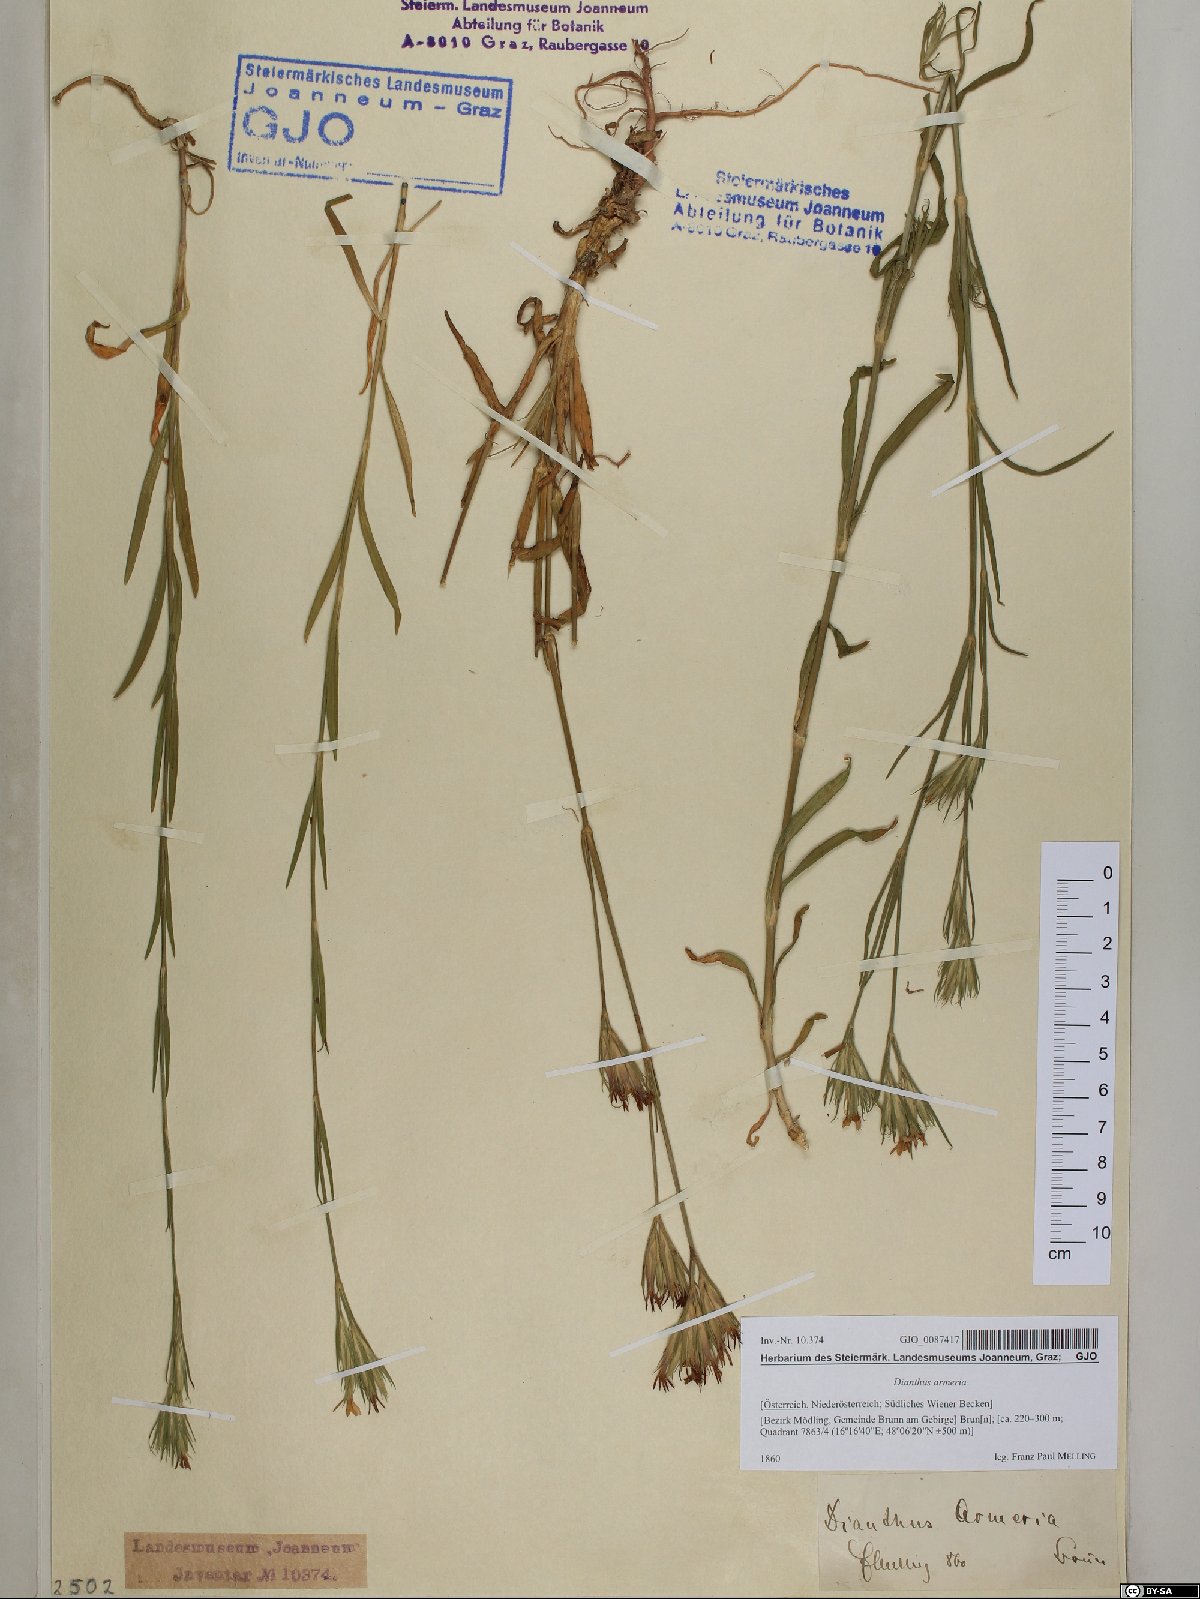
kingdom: Plantae
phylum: Tracheophyta
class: Magnoliopsida
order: Caryophyllales
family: Caryophyllaceae
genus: Dianthus
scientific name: Dianthus armeria
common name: Deptford pink
